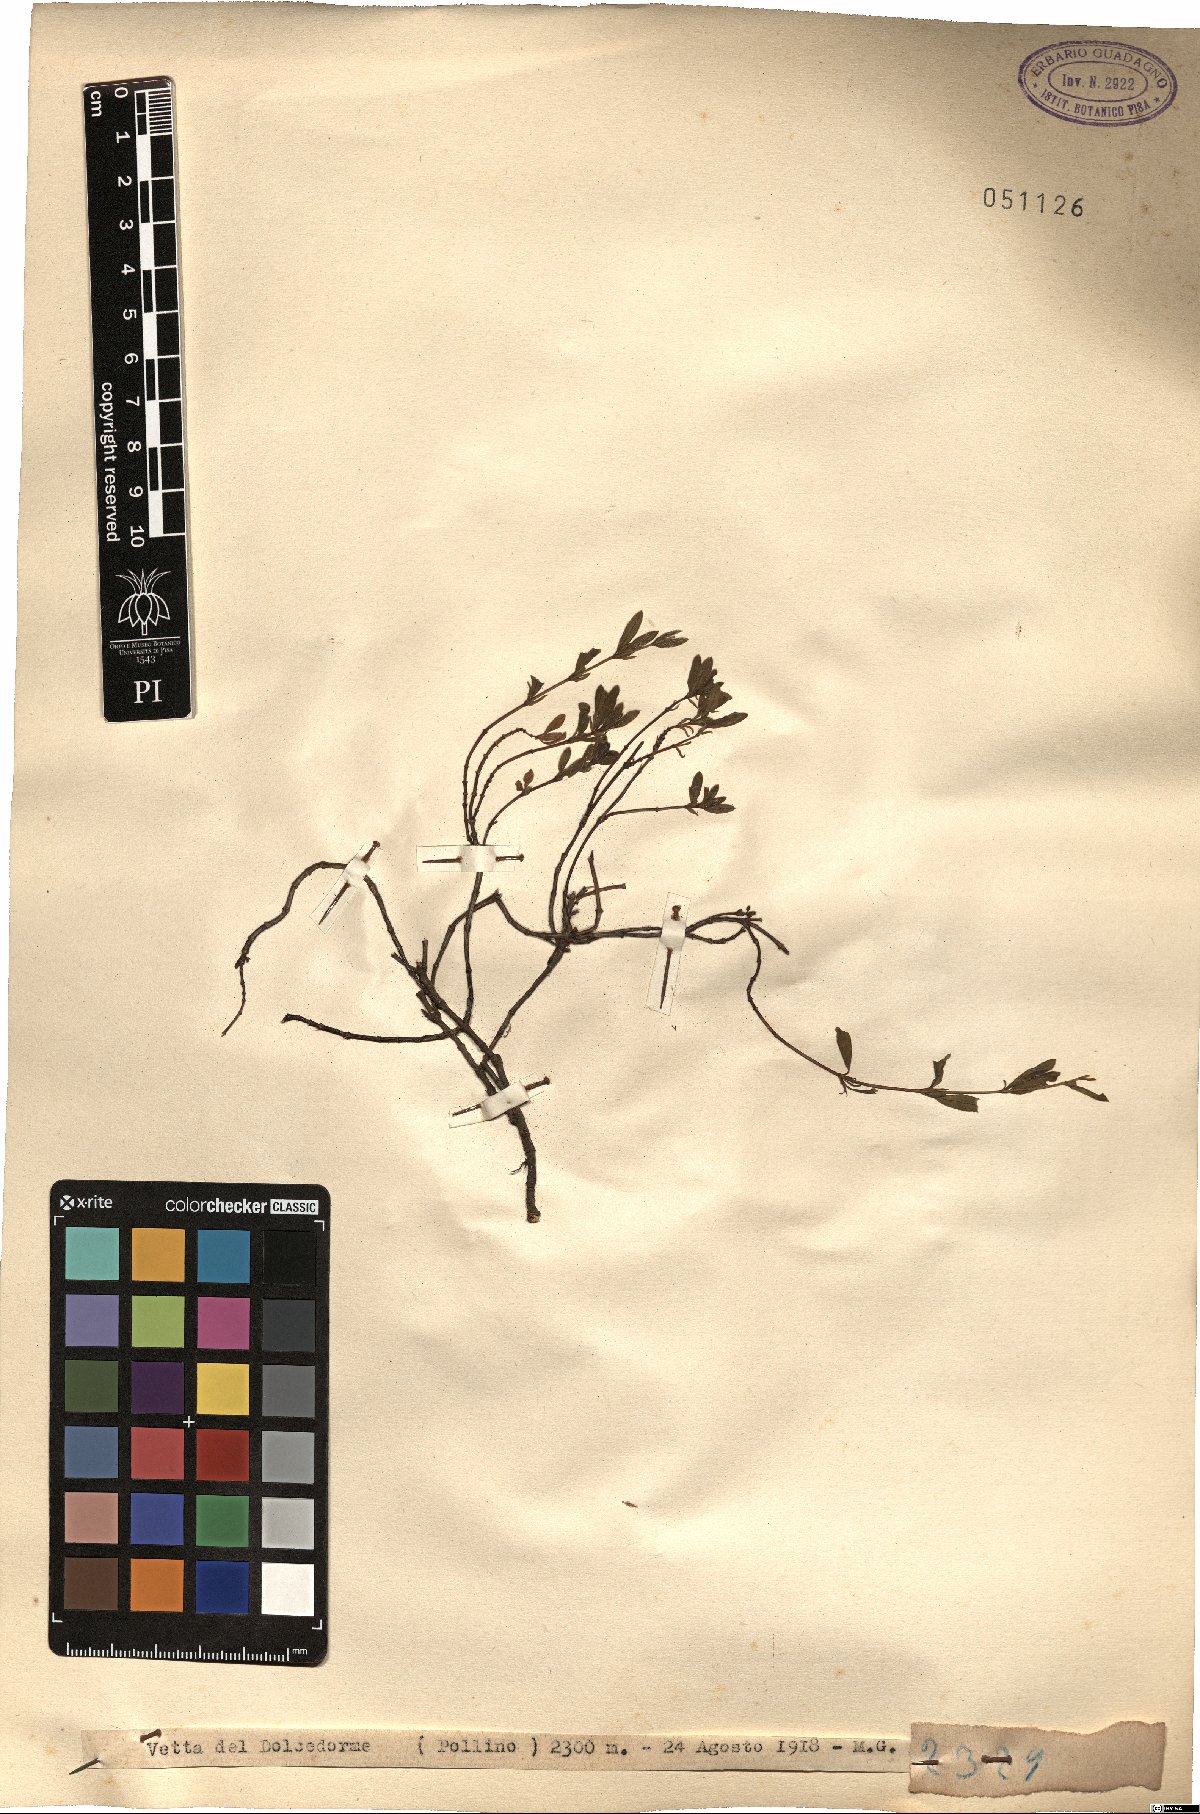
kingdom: Plantae
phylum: Tracheophyta
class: Magnoliopsida
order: Malvales
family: Cistaceae
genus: Helianthemum
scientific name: Helianthemum
